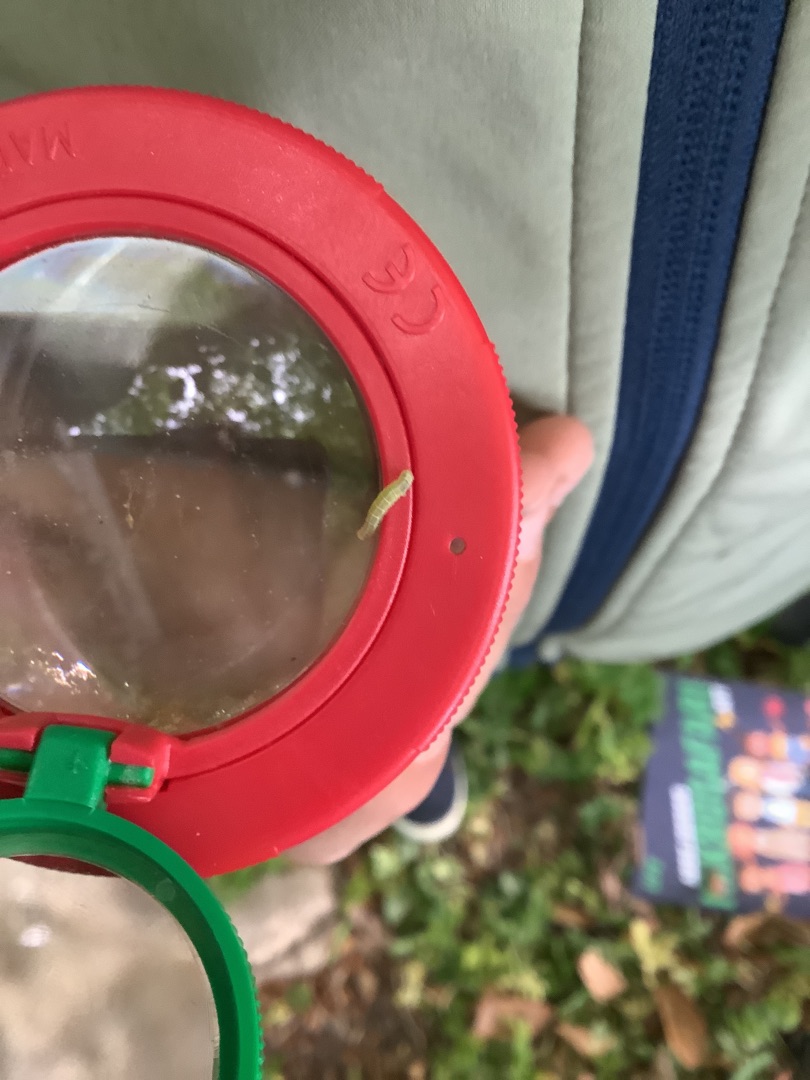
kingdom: Animalia
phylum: Arthropoda
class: Insecta
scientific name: Insecta
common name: Insekter
